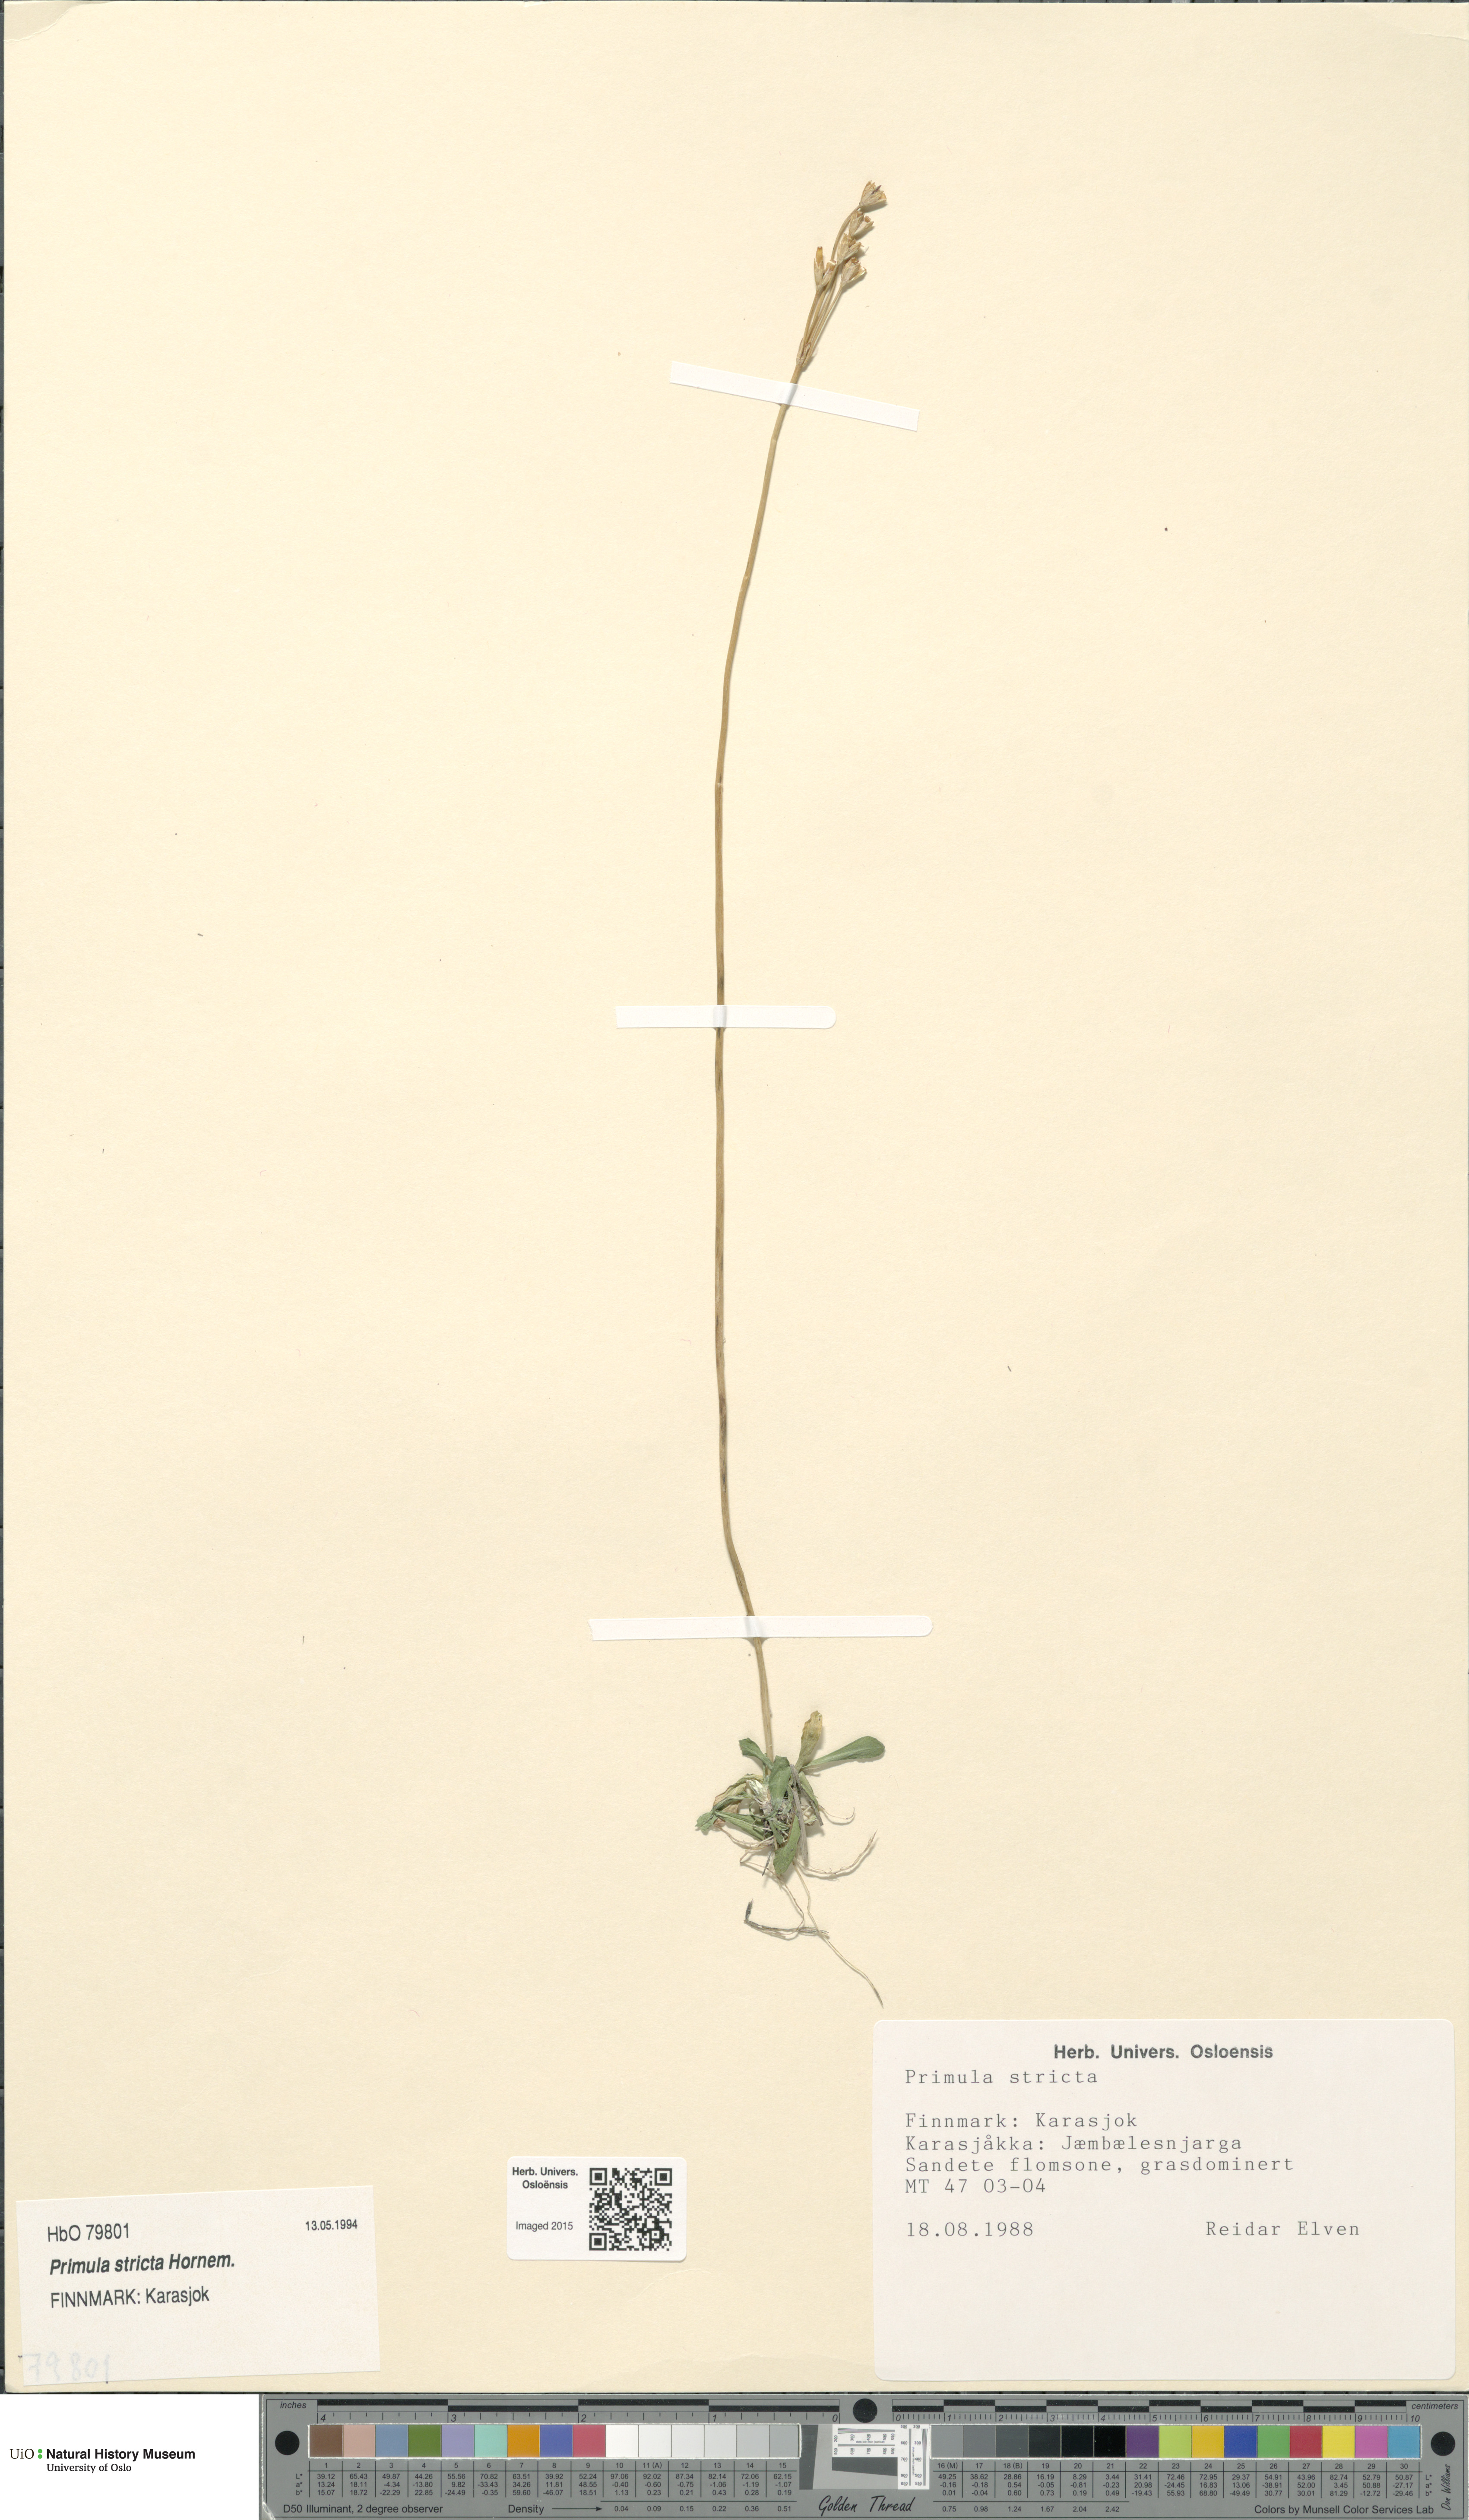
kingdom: Plantae
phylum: Tracheophyta
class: Magnoliopsida
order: Ericales
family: Primulaceae
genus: Primula
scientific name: Primula stricta
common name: Coastal primrose
